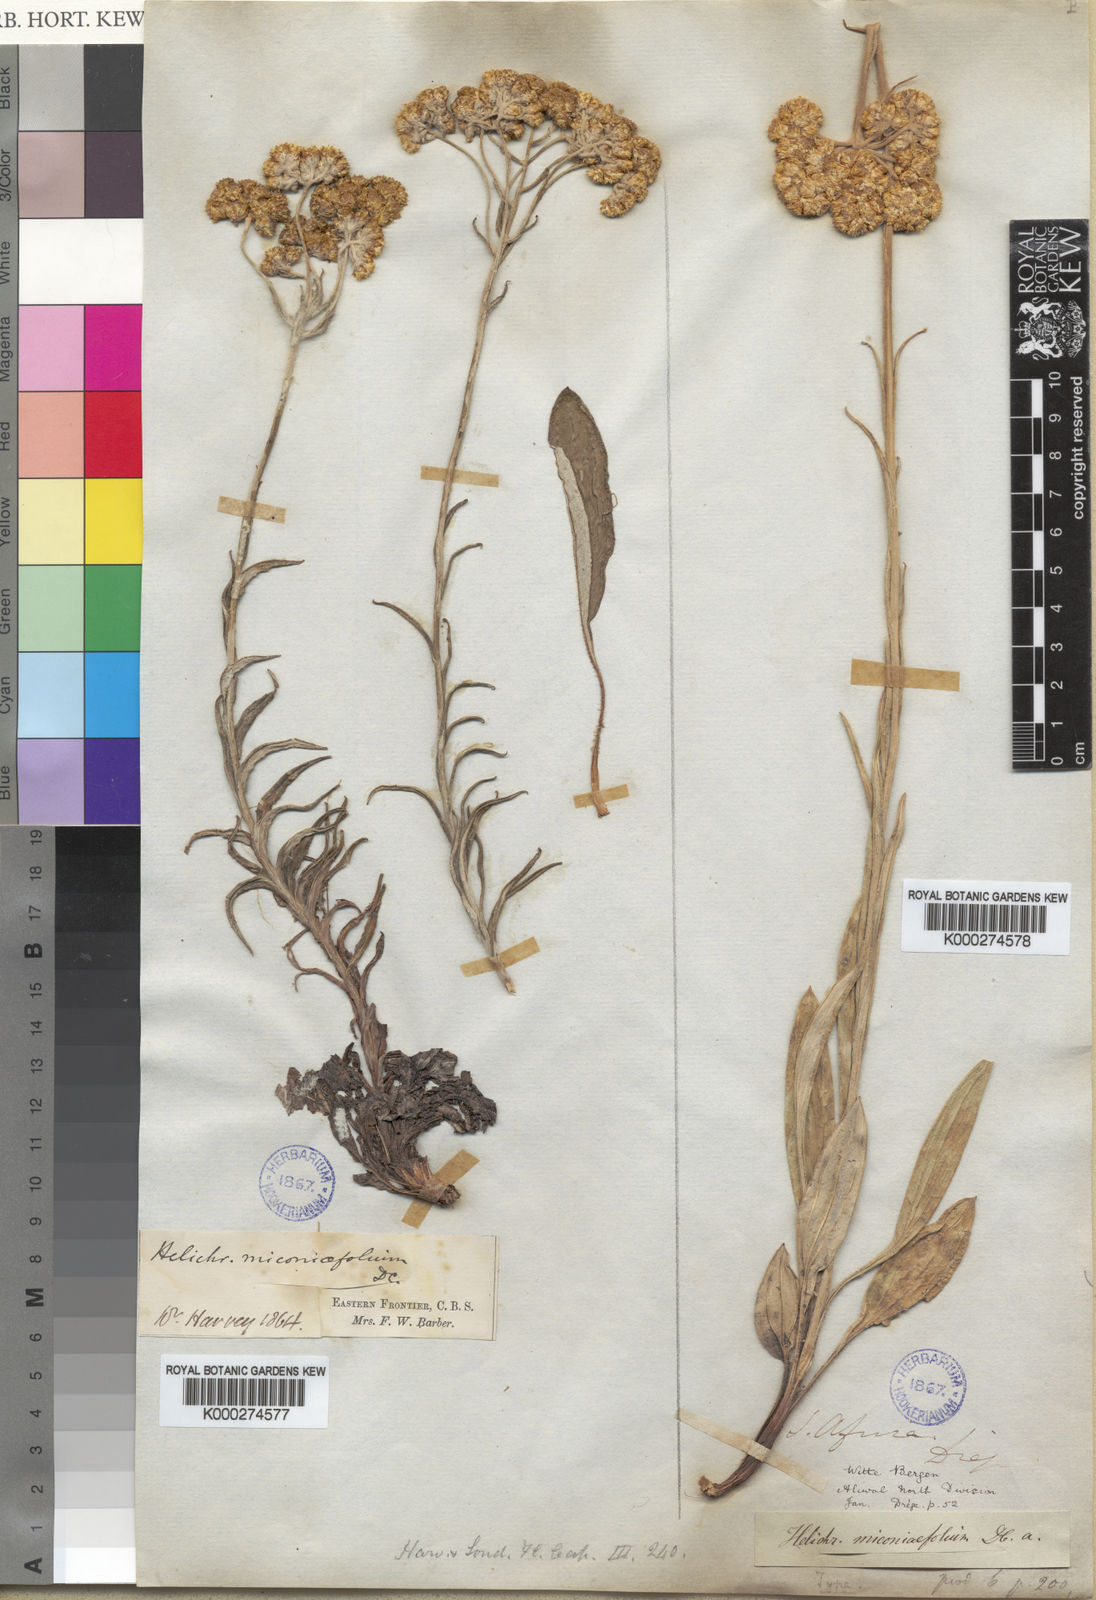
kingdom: Plantae
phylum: Tracheophyta
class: Magnoliopsida
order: Asterales
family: Asteraceae
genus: Helichrysum
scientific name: Helichrysum
